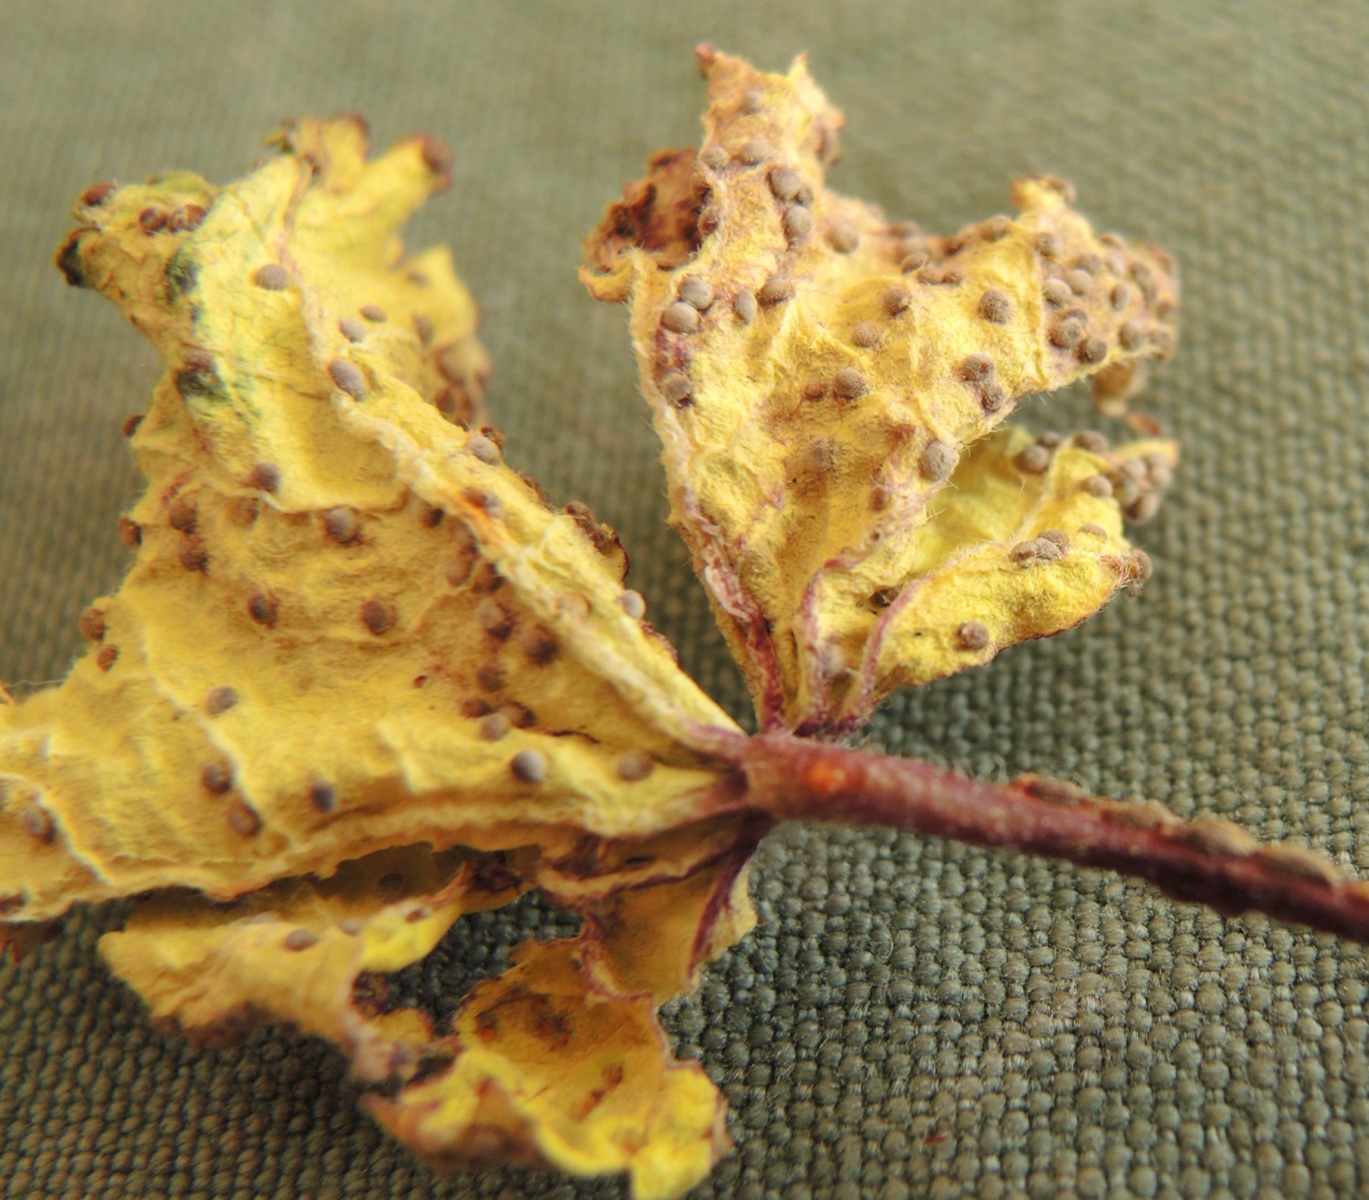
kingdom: Fungi
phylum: Basidiomycota
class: Pucciniomycetes
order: Pucciniales
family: Pucciniaceae
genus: Puccinia
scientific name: Puccinia malvacearum
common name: stokrose-tvecellerust
